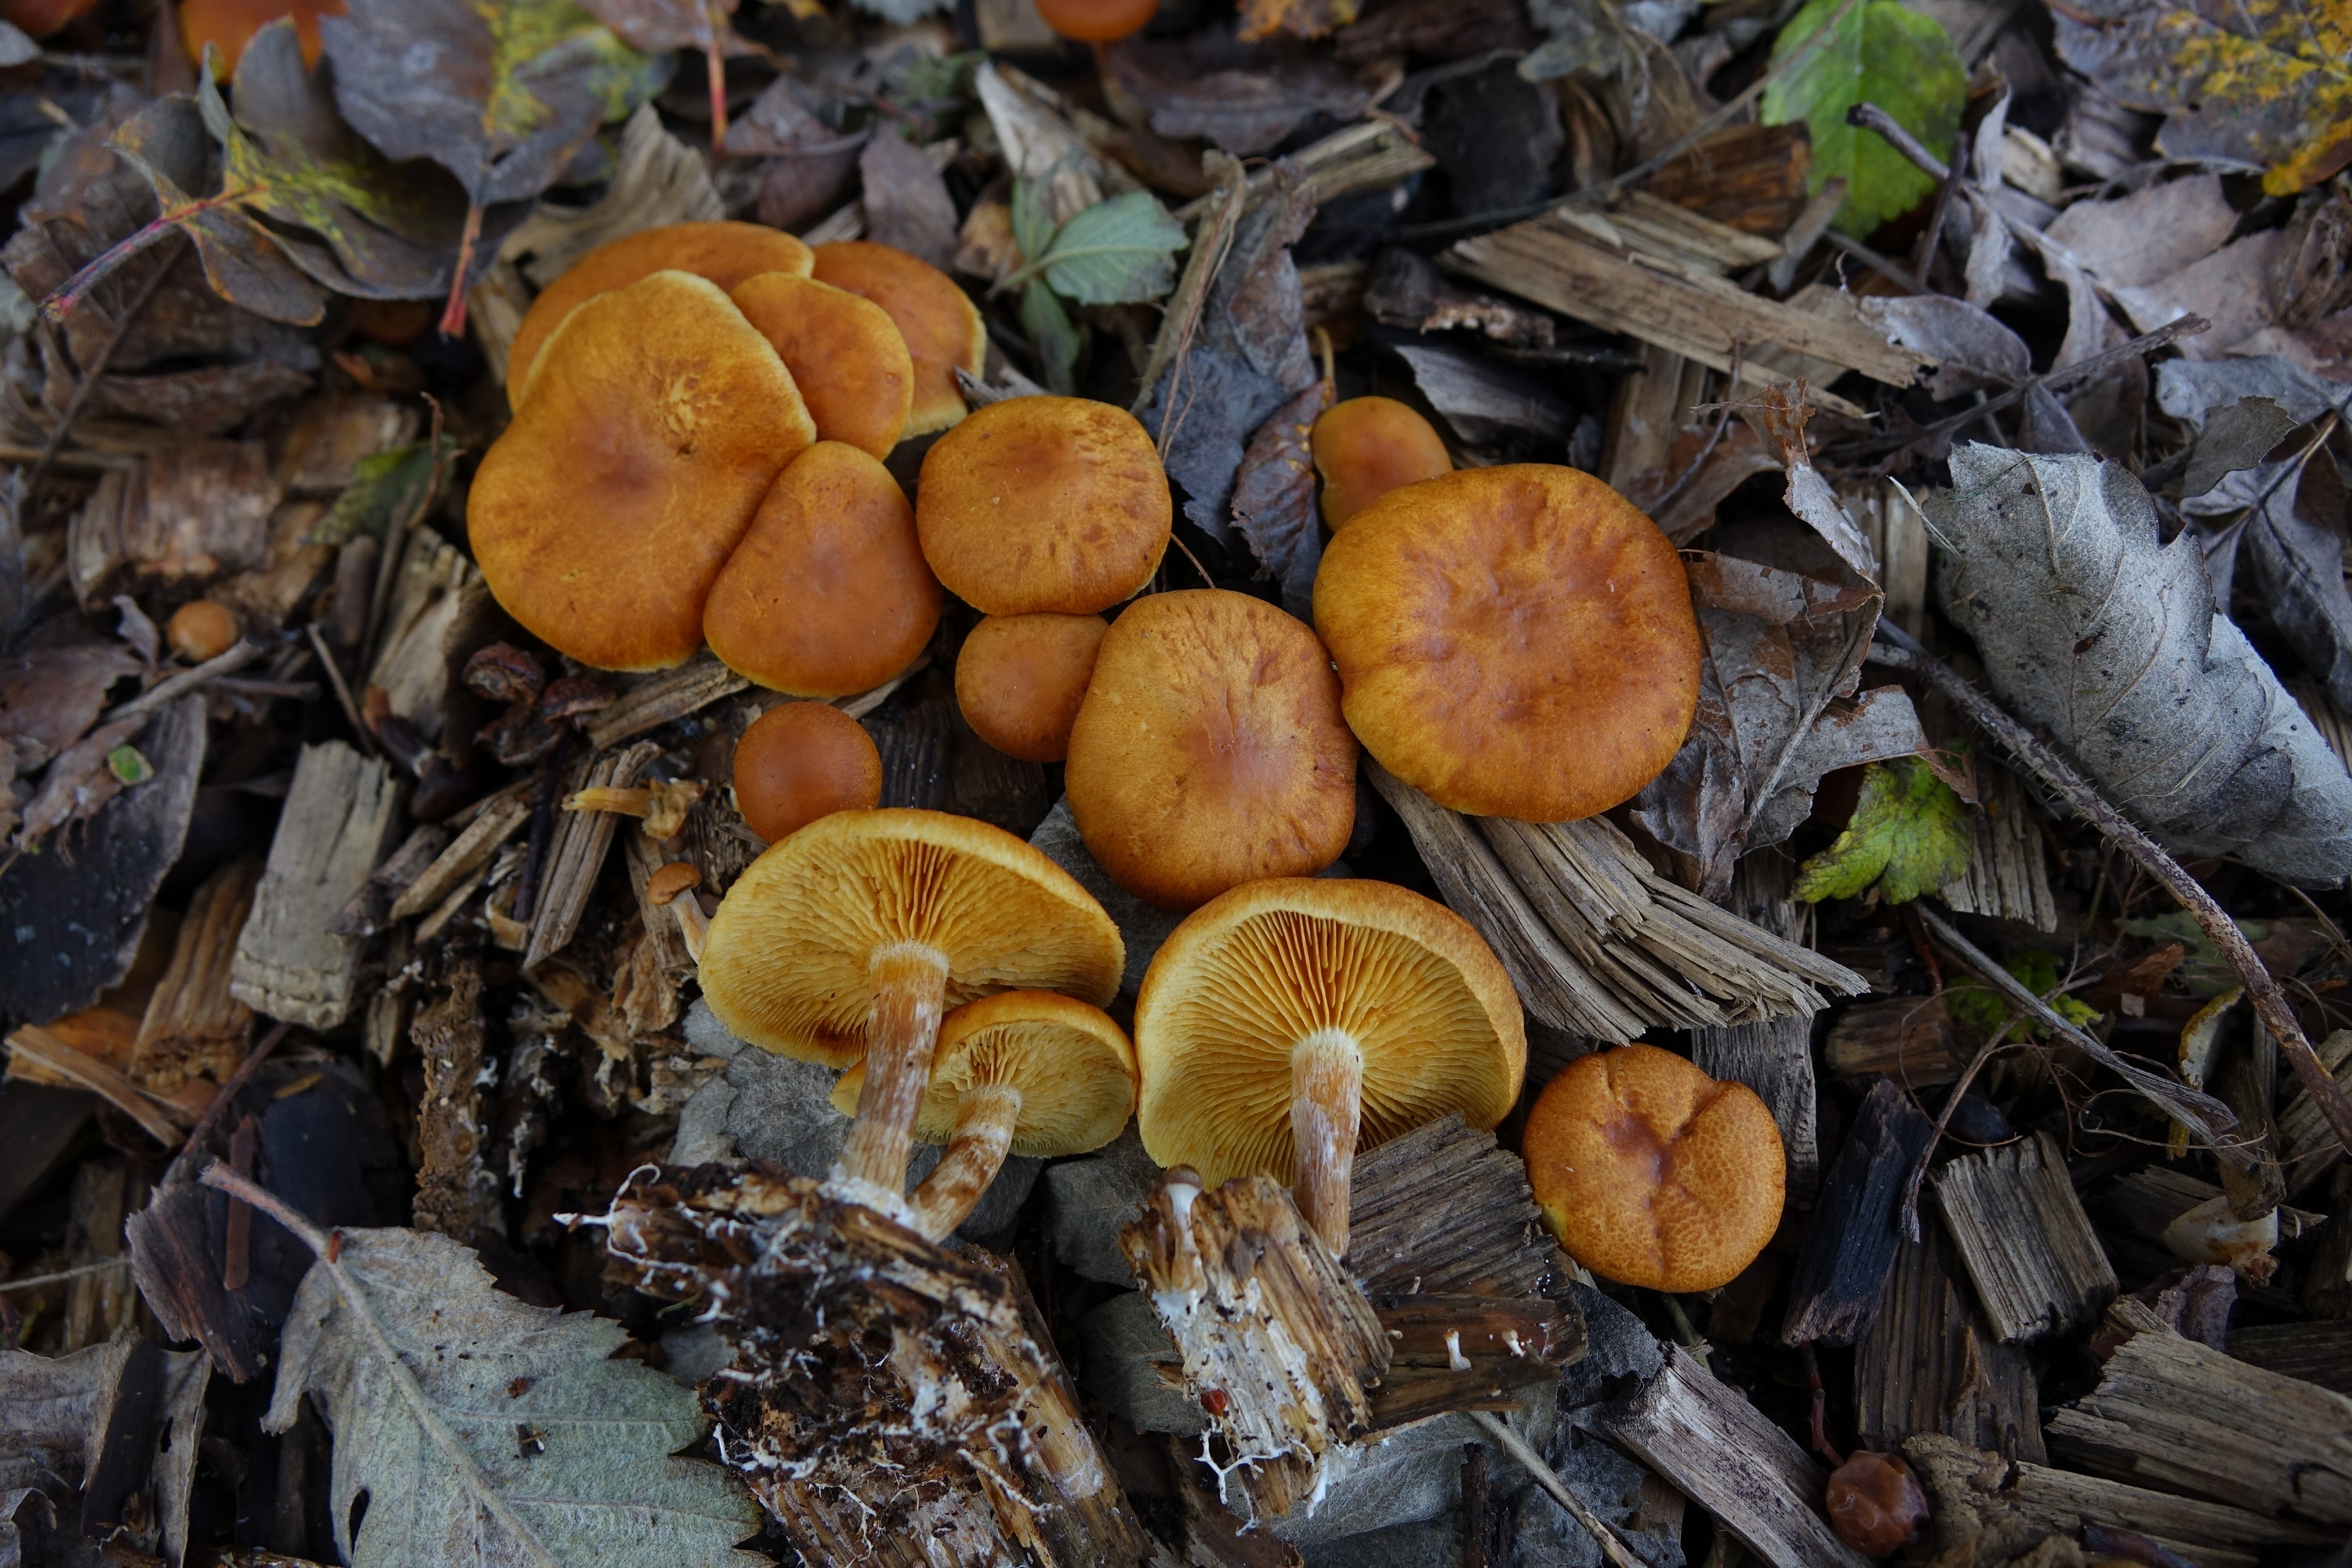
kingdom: Fungi
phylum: Basidiomycota
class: Agaricomycetes
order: Agaricales
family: Hymenogastraceae
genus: Gymnopilus
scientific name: Gymnopilus penetrans
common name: Common rustgill
